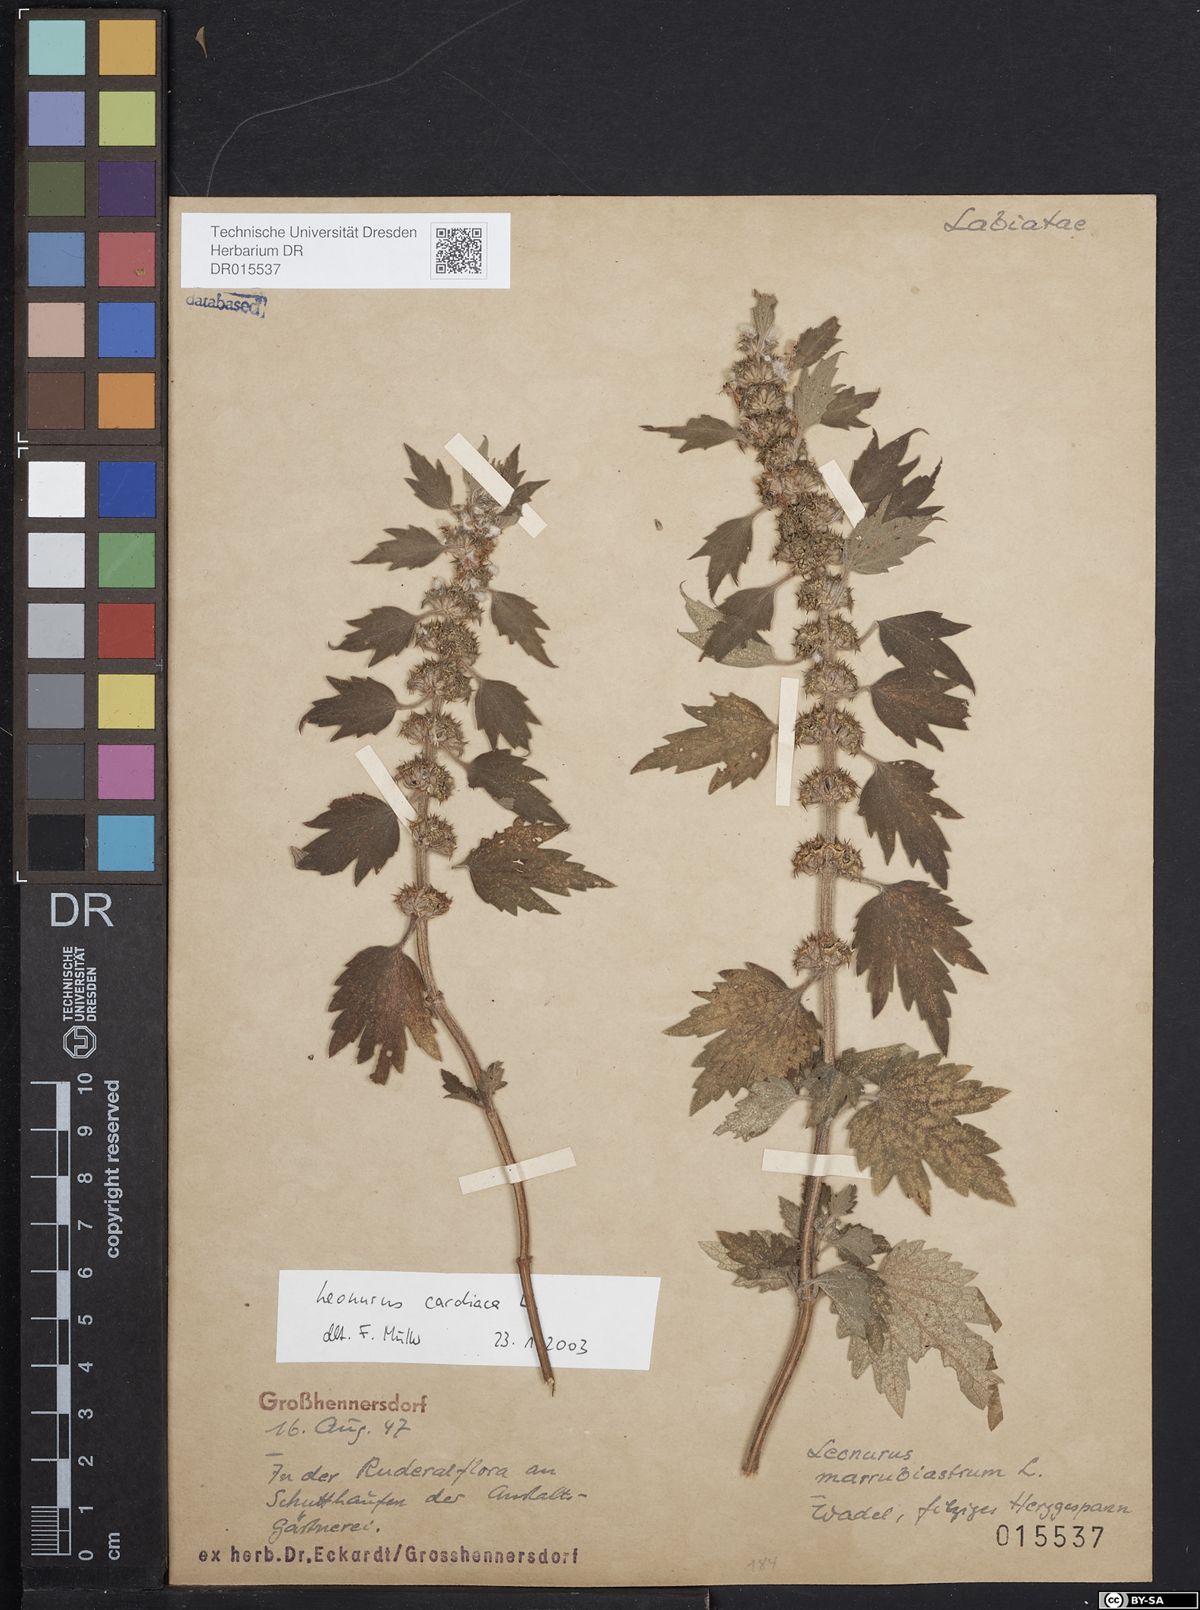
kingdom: Plantae
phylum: Tracheophyta
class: Magnoliopsida
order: Lamiales
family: Lamiaceae
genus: Leonurus
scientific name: Leonurus cardiaca
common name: Motherwort
